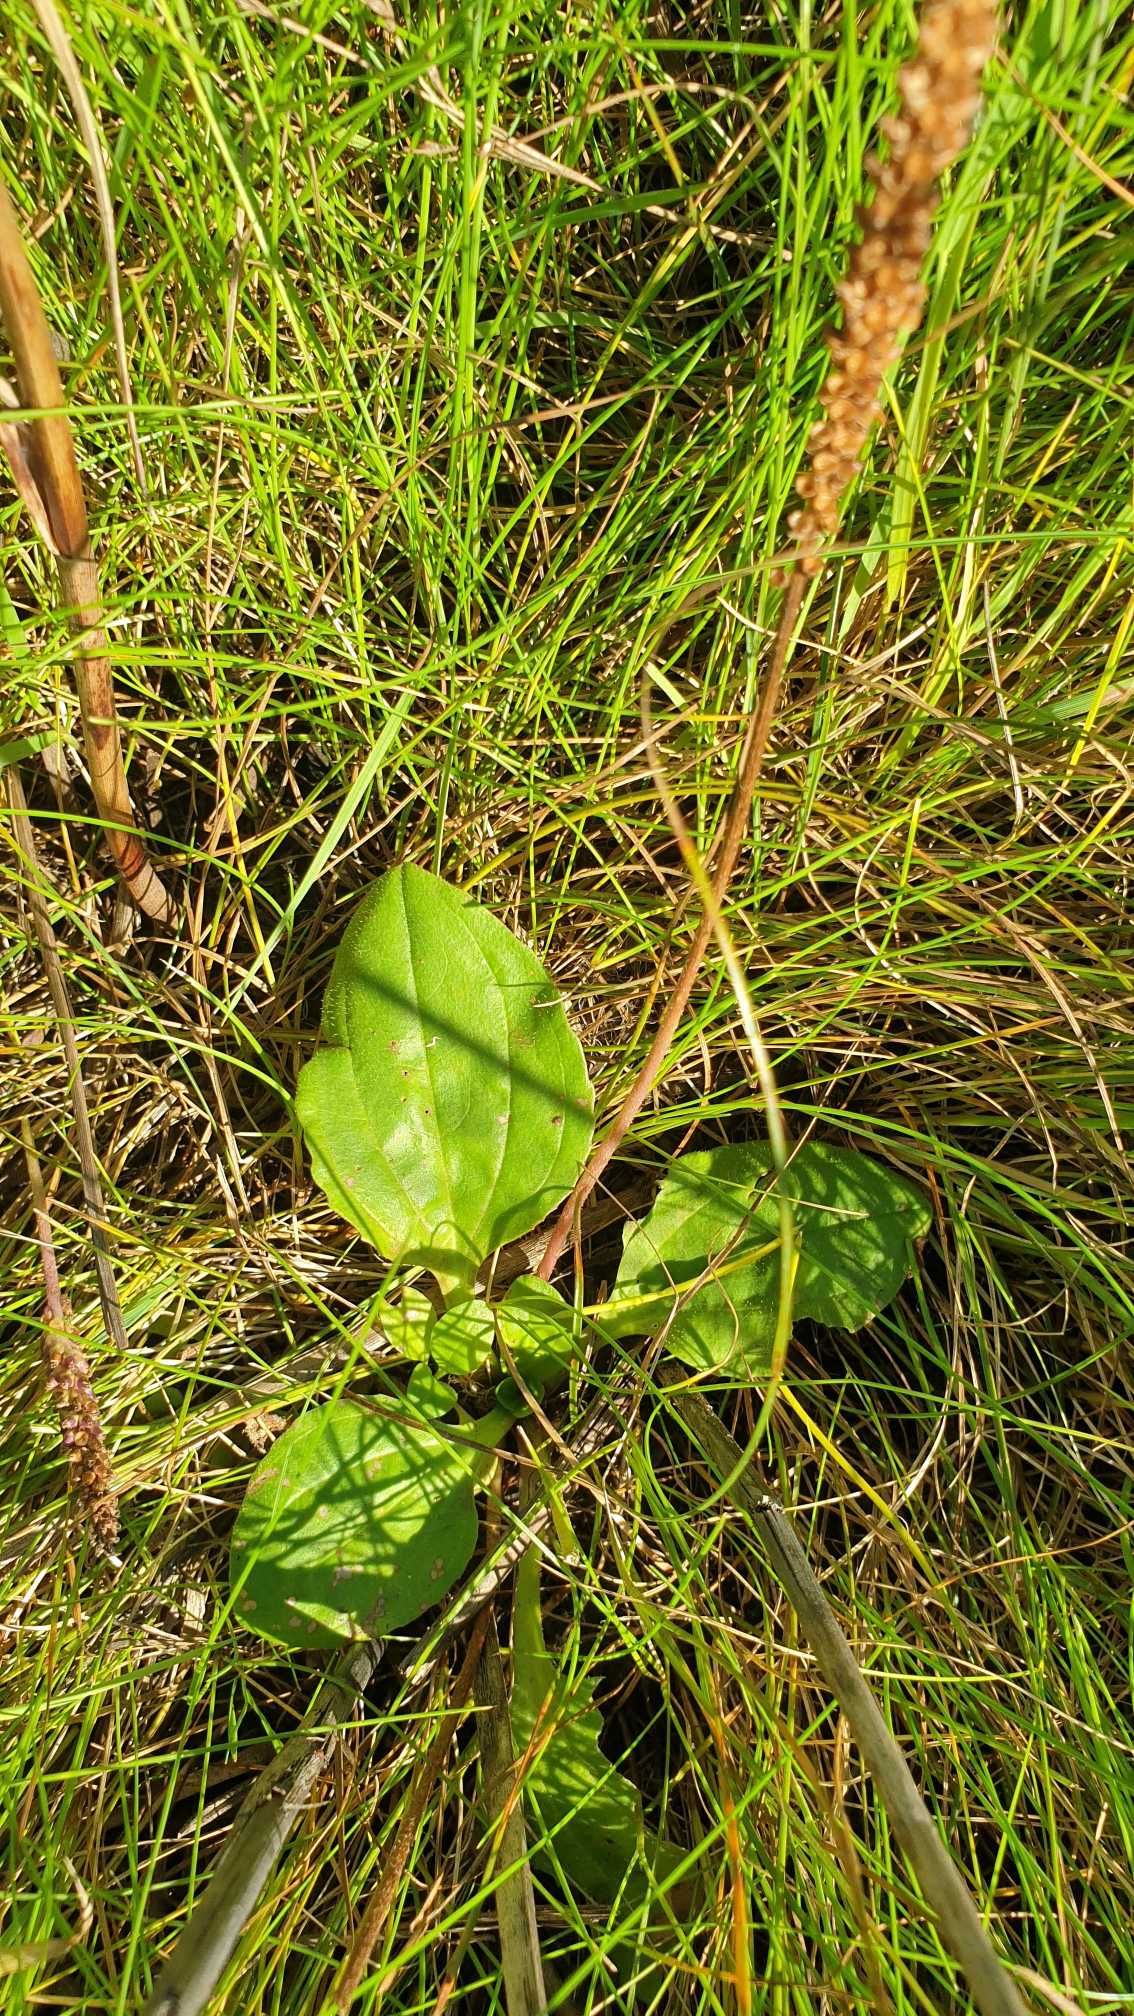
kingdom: Plantae
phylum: Tracheophyta
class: Magnoliopsida
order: Lamiales
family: Plantaginaceae
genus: Plantago
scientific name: Plantago major
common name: Glat vejbred
